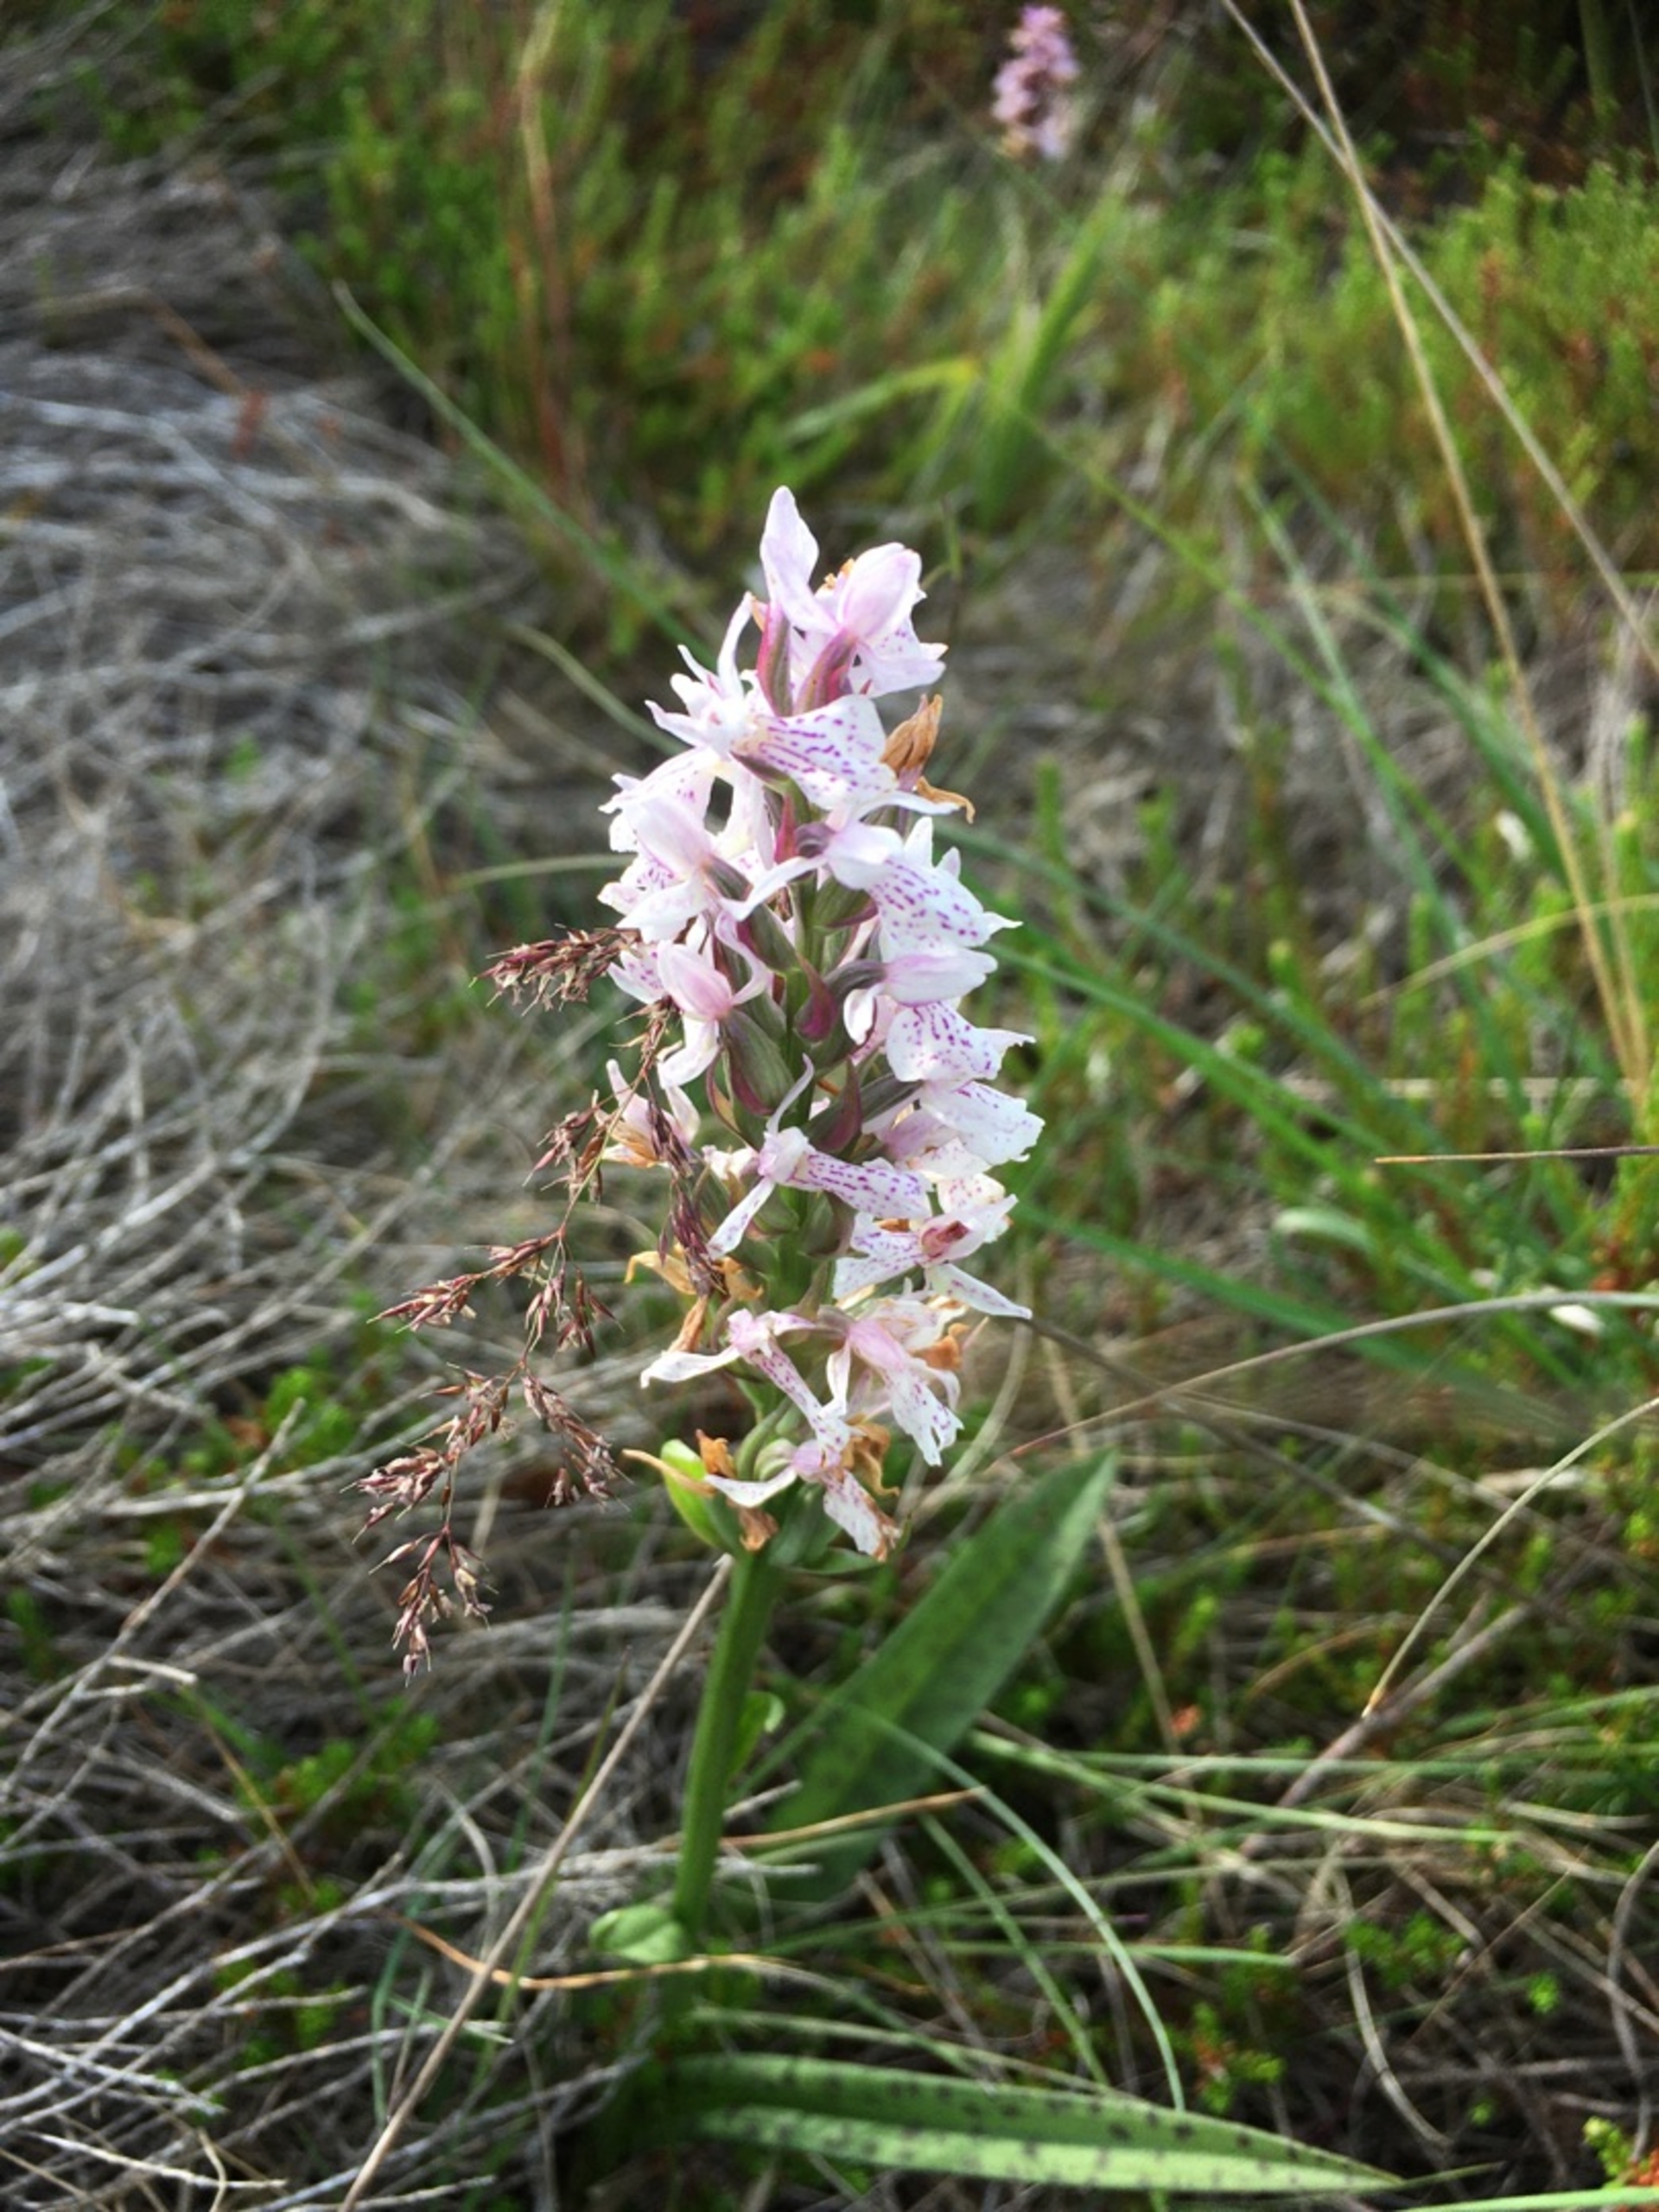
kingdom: Plantae
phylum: Tracheophyta
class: Liliopsida
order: Asparagales
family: Orchidaceae
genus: Dactylorhiza
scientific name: Dactylorhiza maculata
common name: Plettet gøgeurt
